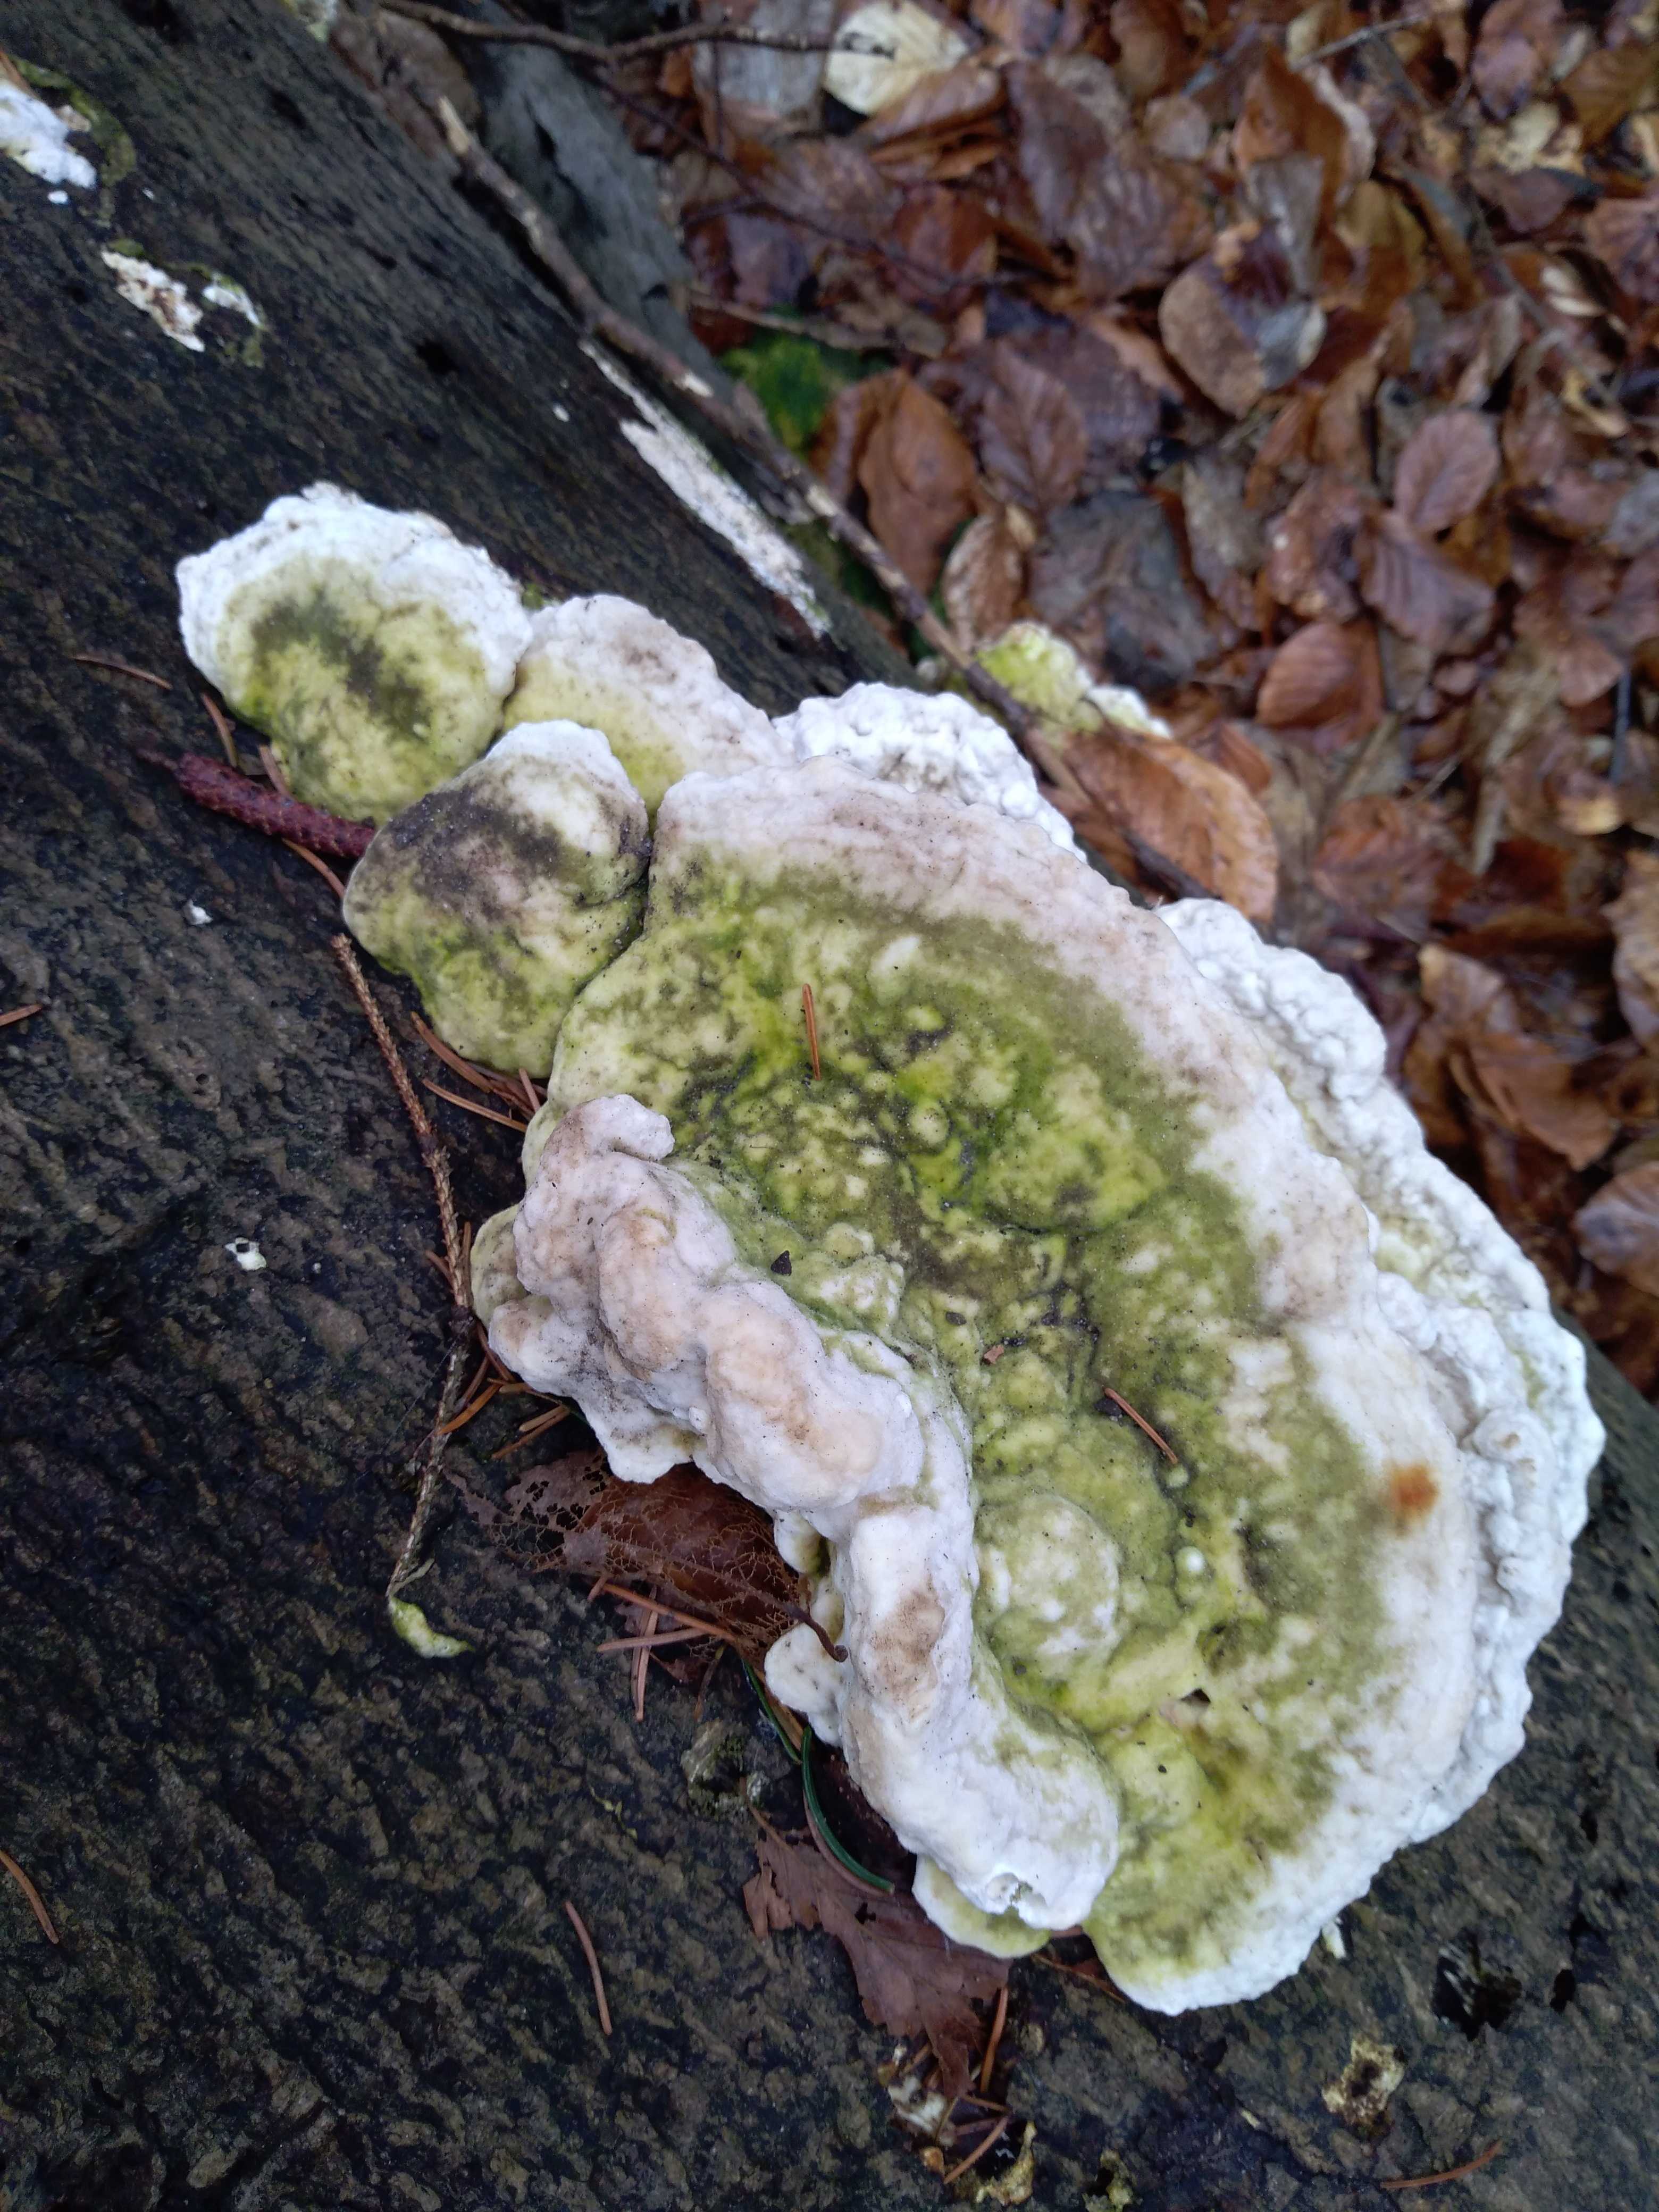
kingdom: Fungi
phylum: Basidiomycota
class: Agaricomycetes
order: Polyporales
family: Polyporaceae
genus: Trametes
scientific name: Trametes gibbosa
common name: puklet læderporesvamp
